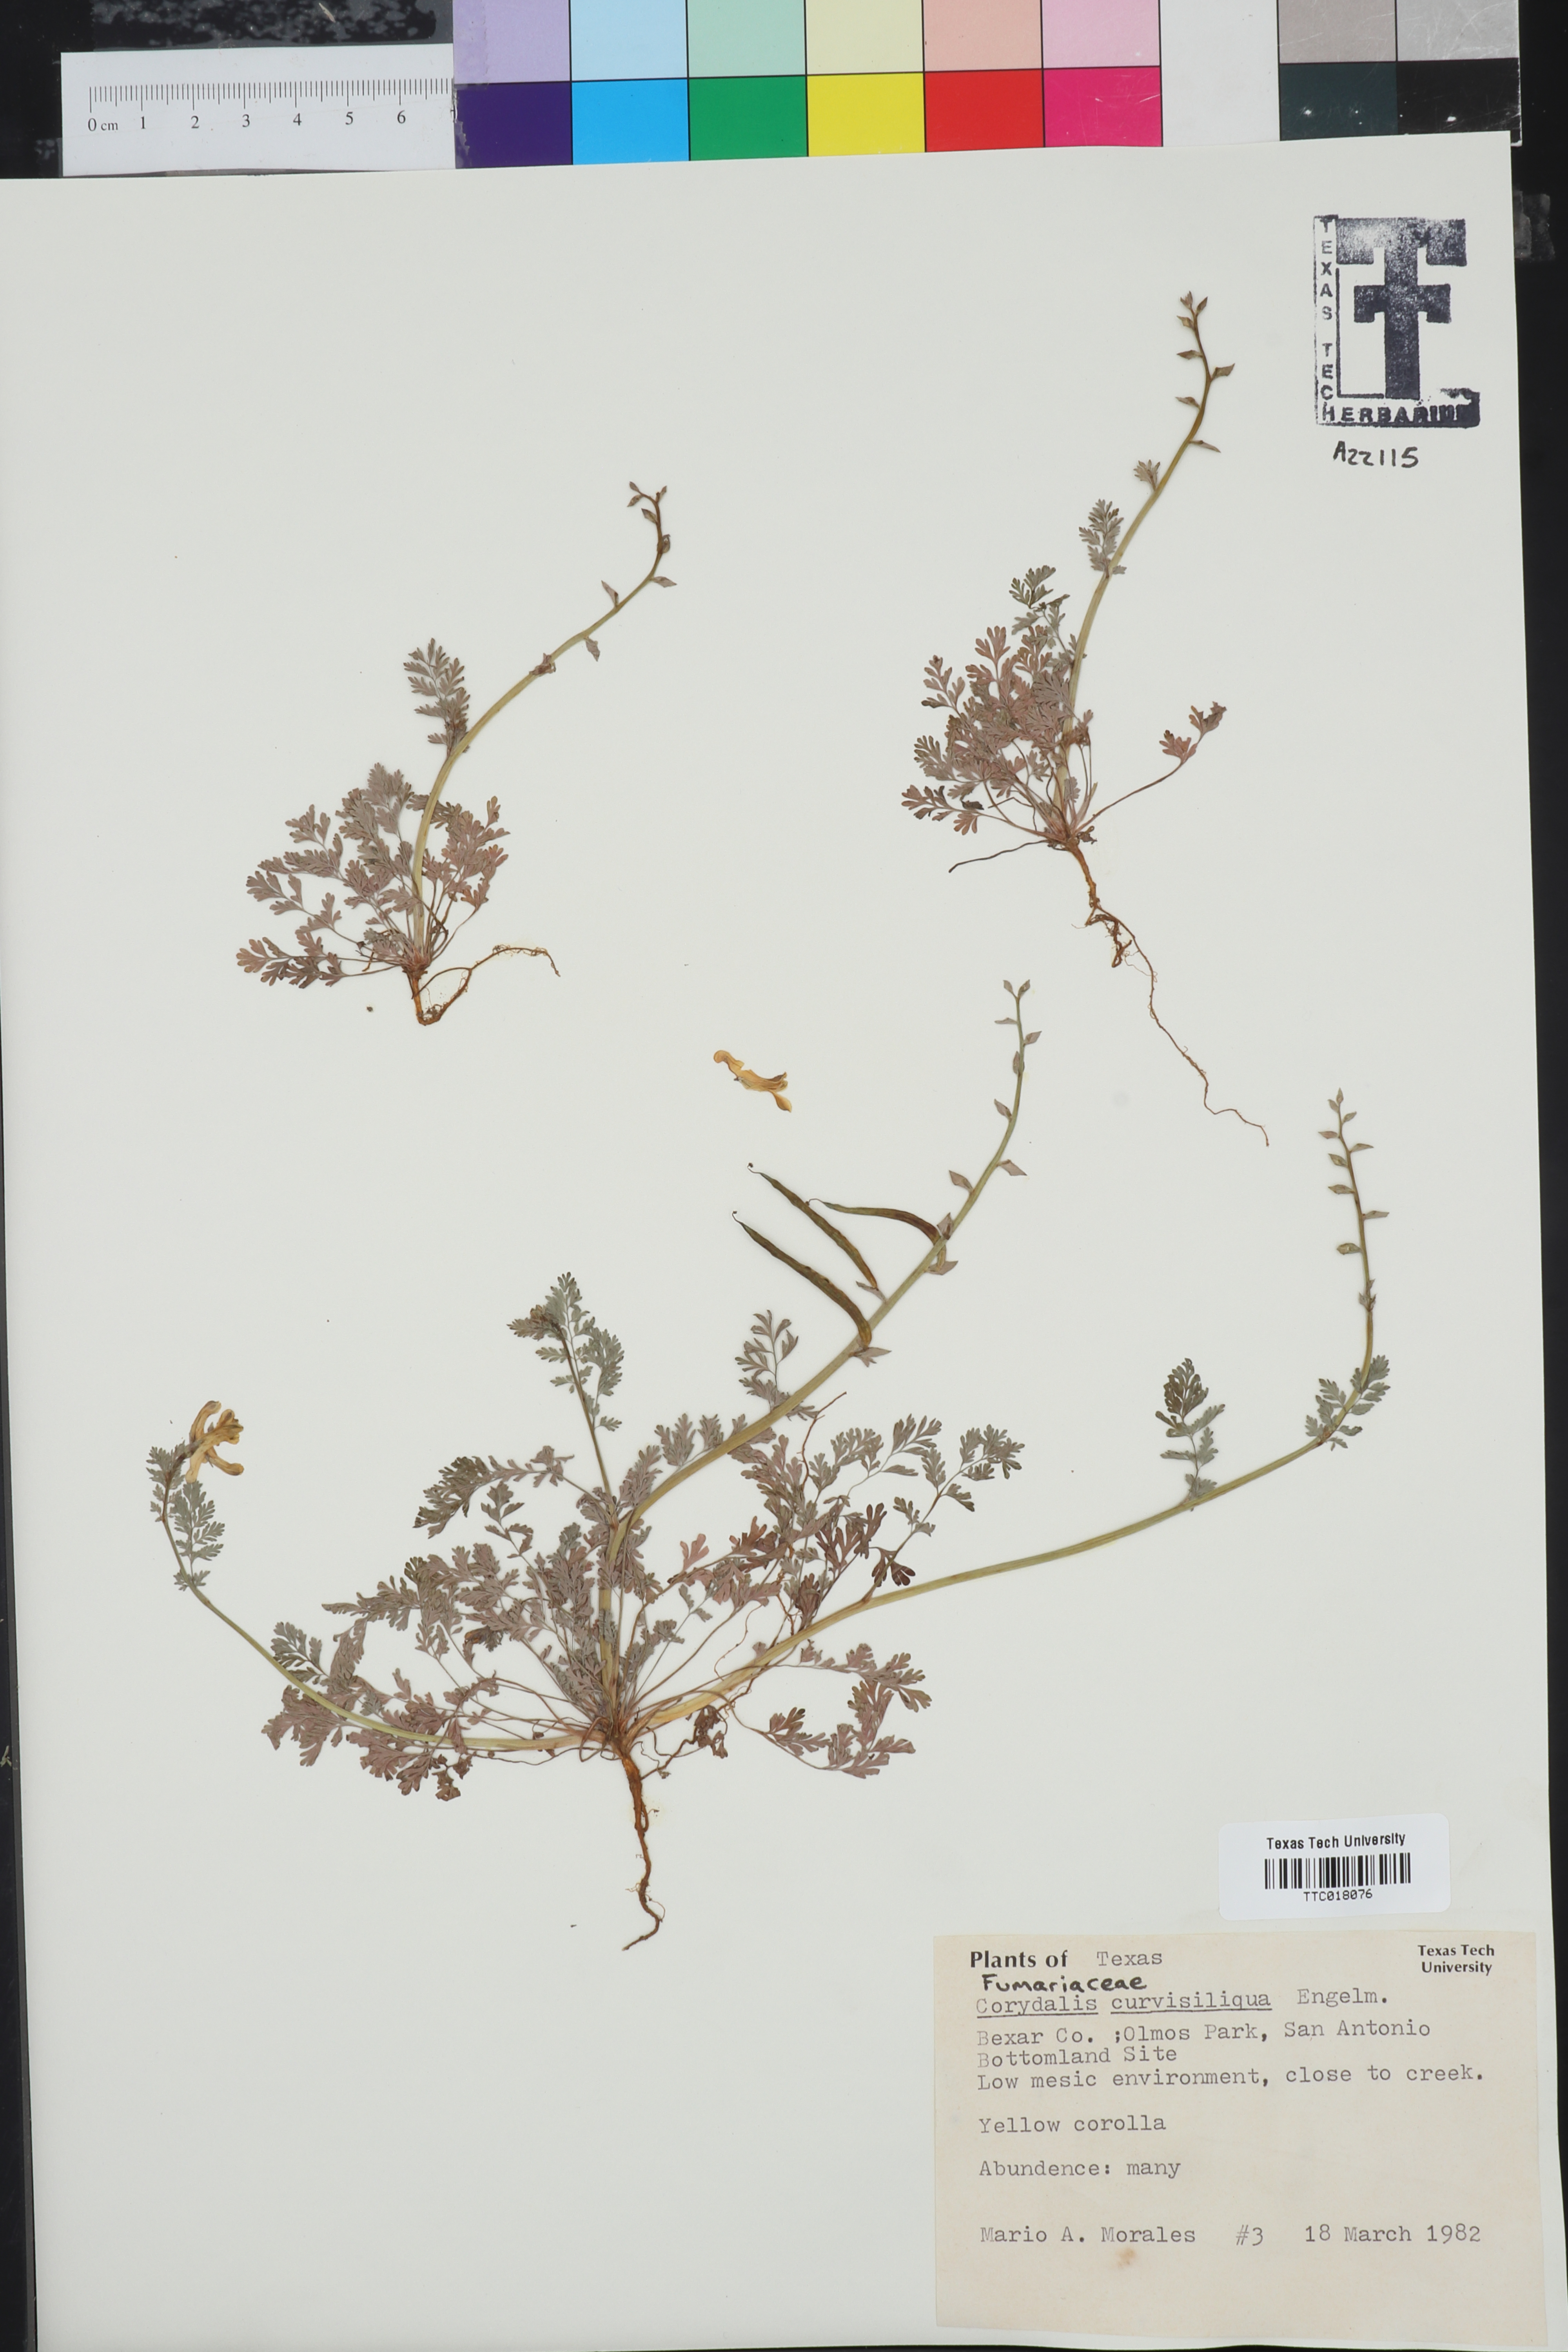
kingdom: Plantae
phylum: Tracheophyta
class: Magnoliopsida
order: Ranunculales
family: Papaveraceae
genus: Corydalis
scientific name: Corydalis curvisiliqua
